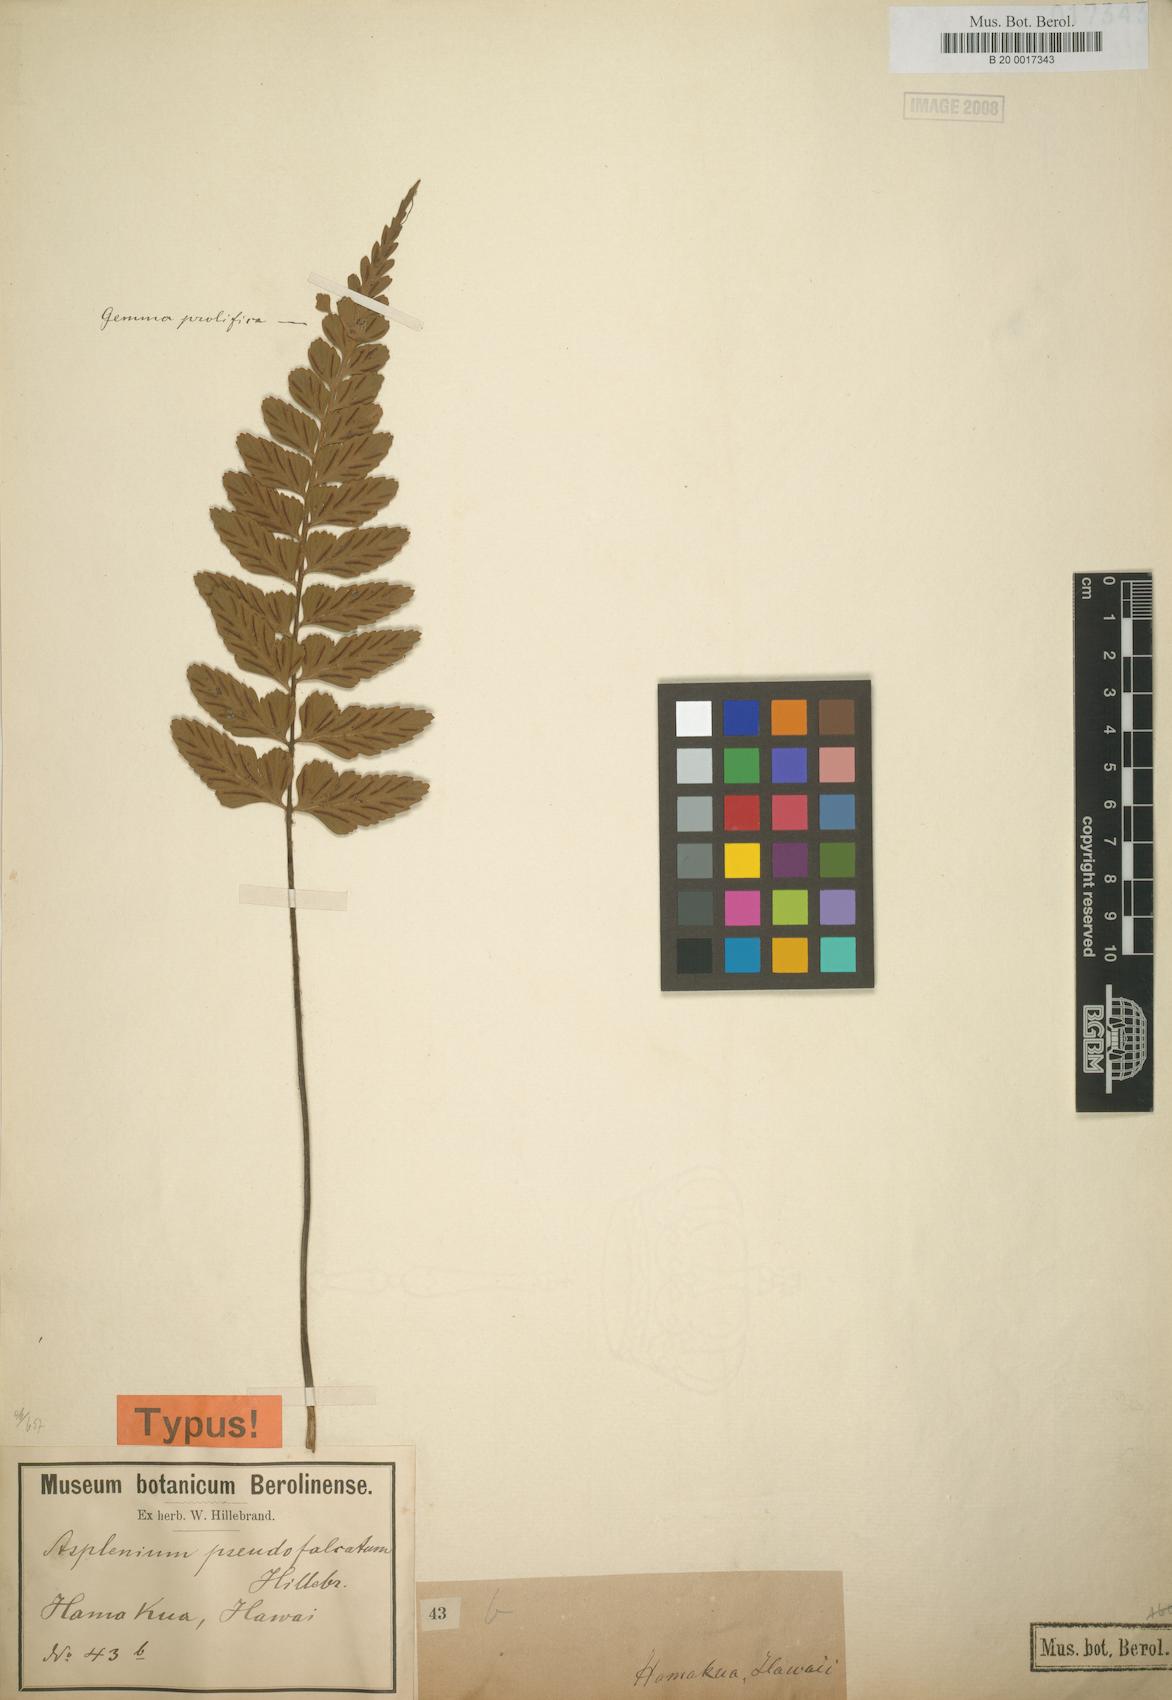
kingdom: Plantae
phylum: Tracheophyta
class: Polypodiopsida
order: Polypodiales
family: Aspleniaceae
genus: Asplenium
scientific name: Asplenium lobulatum
